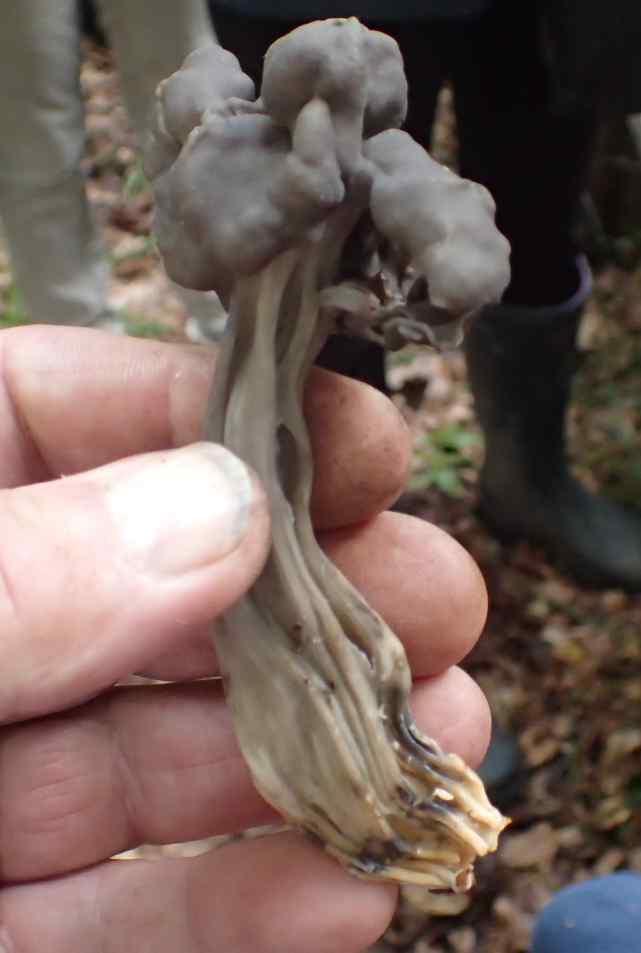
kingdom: Fungi
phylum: Ascomycota
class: Pezizomycetes
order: Pezizales
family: Helvellaceae
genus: Helvella
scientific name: Helvella lacunosa
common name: grubet foldhat
